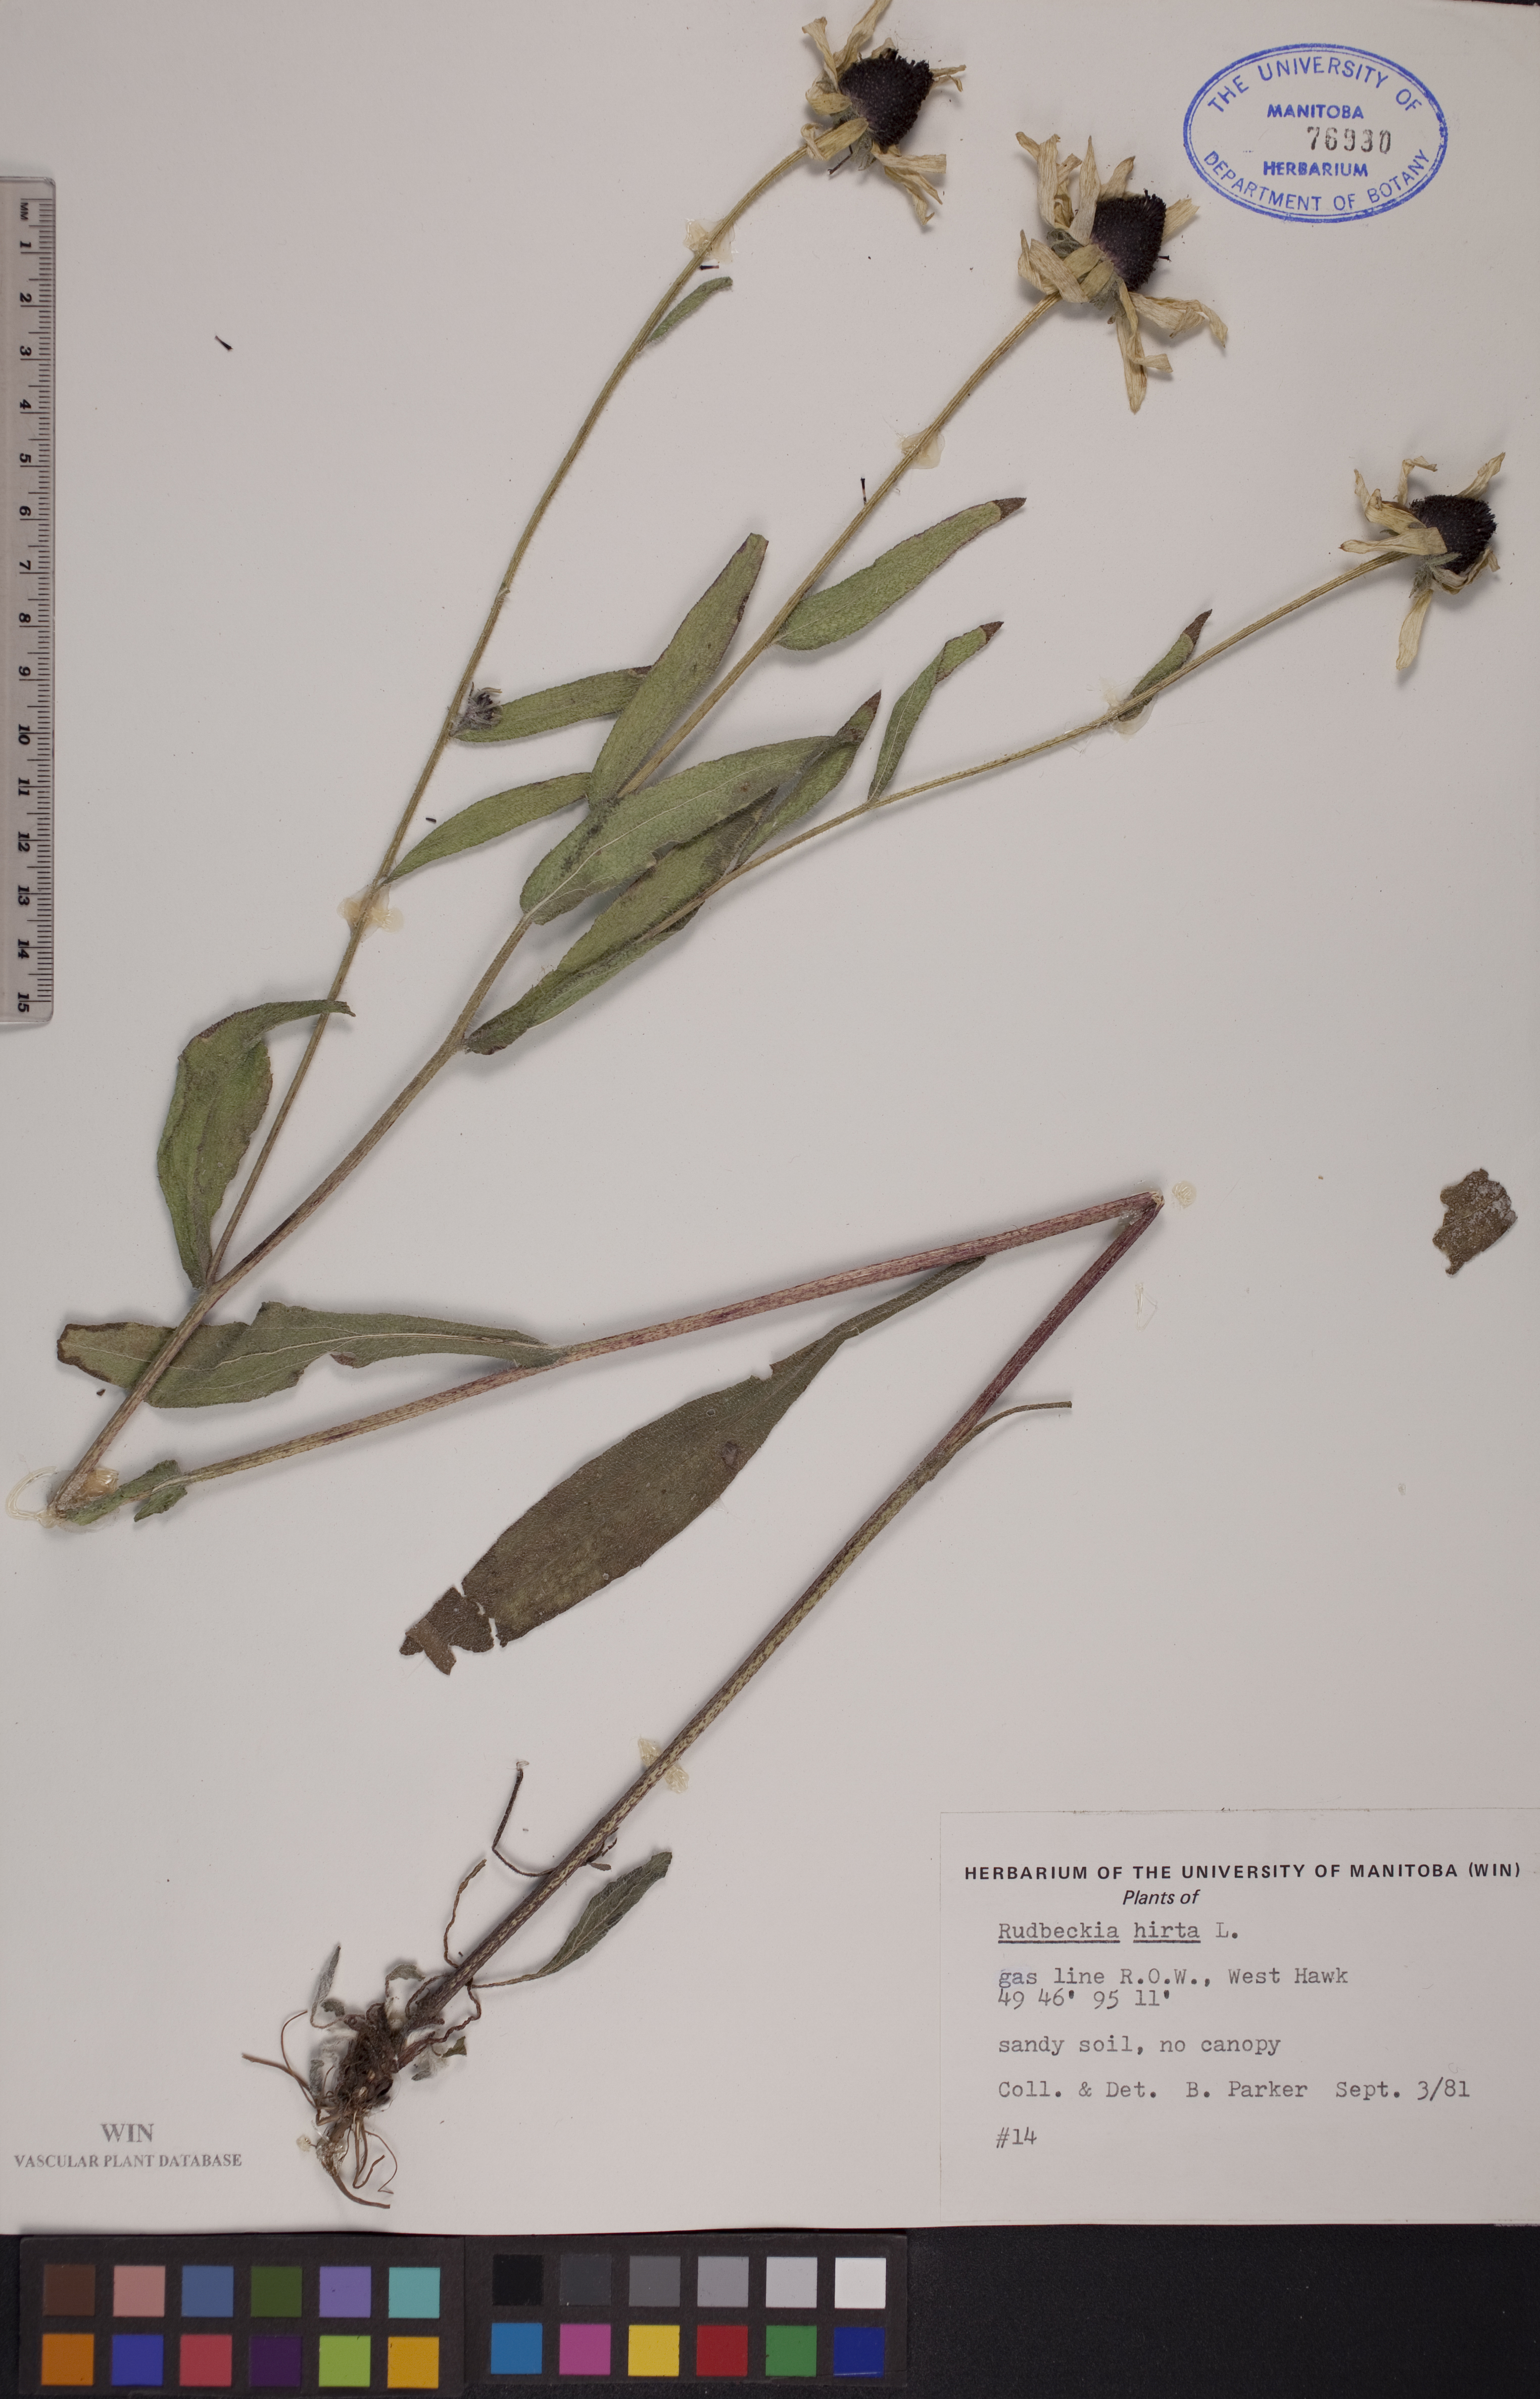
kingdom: Plantae
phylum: Tracheophyta
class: Magnoliopsida
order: Asterales
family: Asteraceae
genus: Rudbeckia
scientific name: Rudbeckia hirta
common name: Black-eyed-susan
